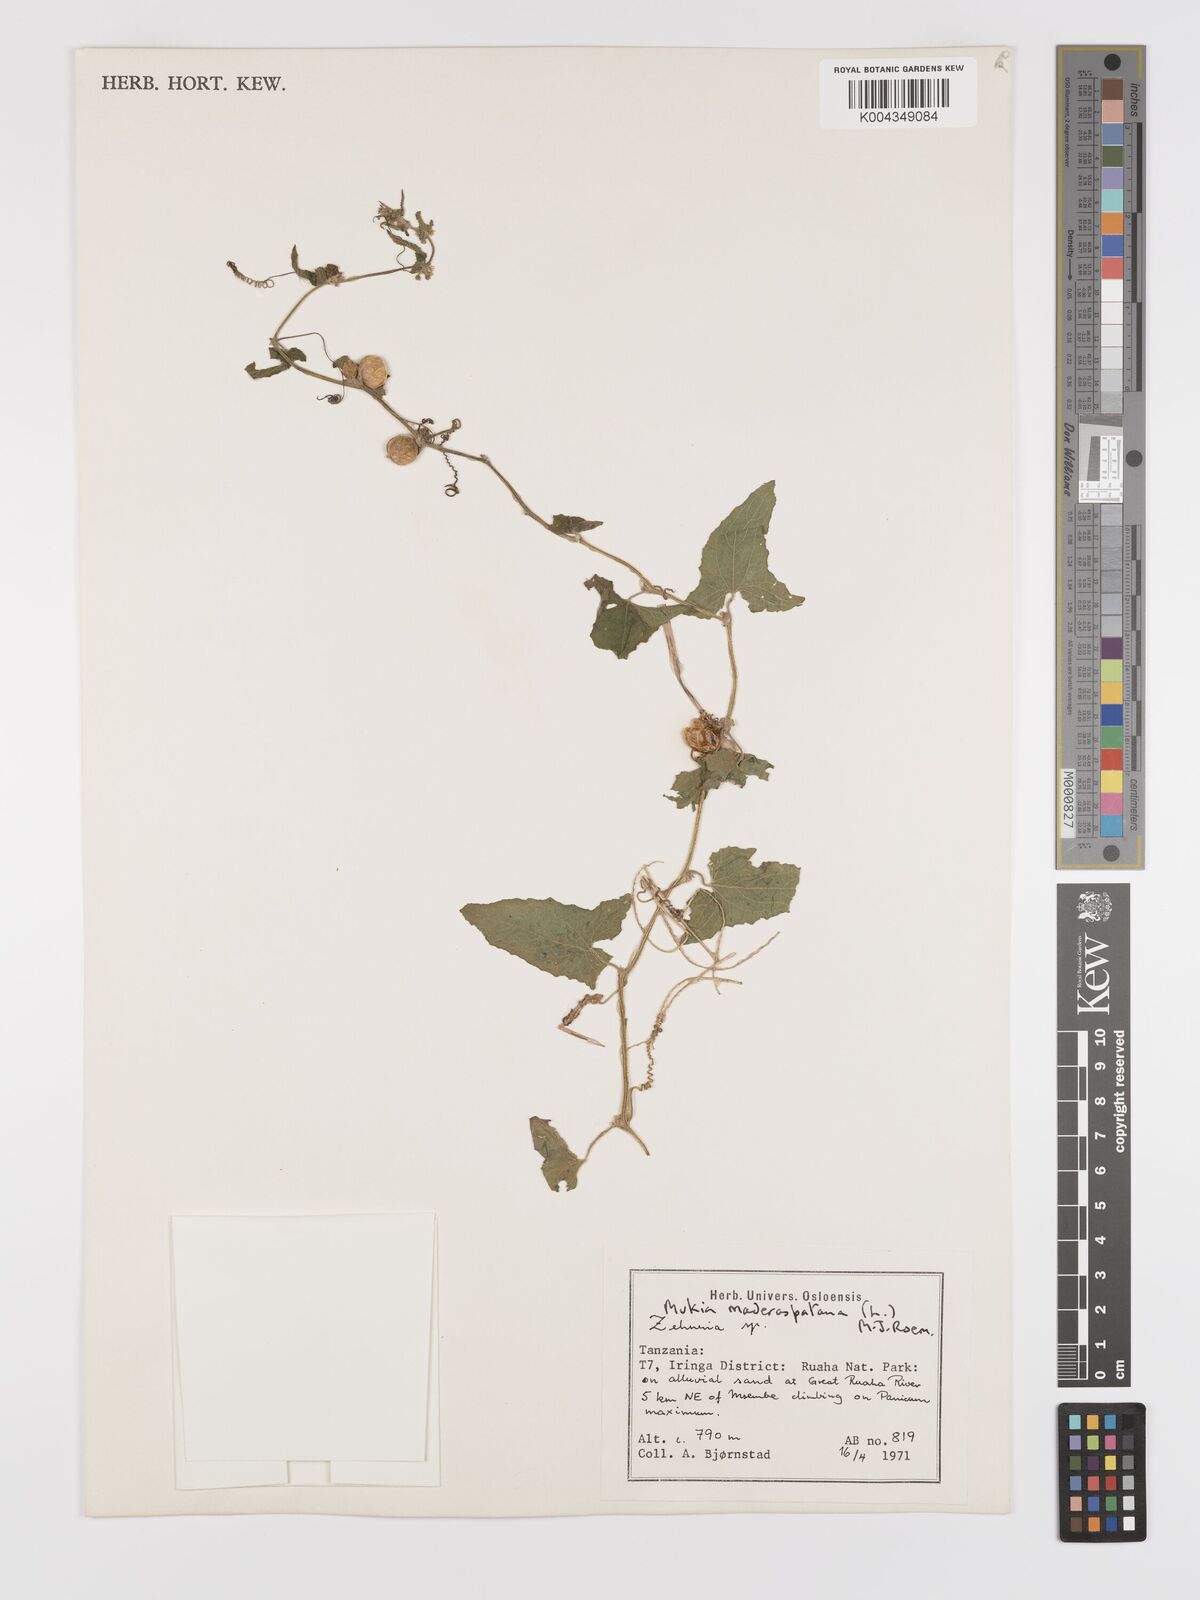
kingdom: Plantae
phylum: Tracheophyta
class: Magnoliopsida
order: Cucurbitales
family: Cucurbitaceae
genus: Cucumis
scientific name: Cucumis maderaspatanus
